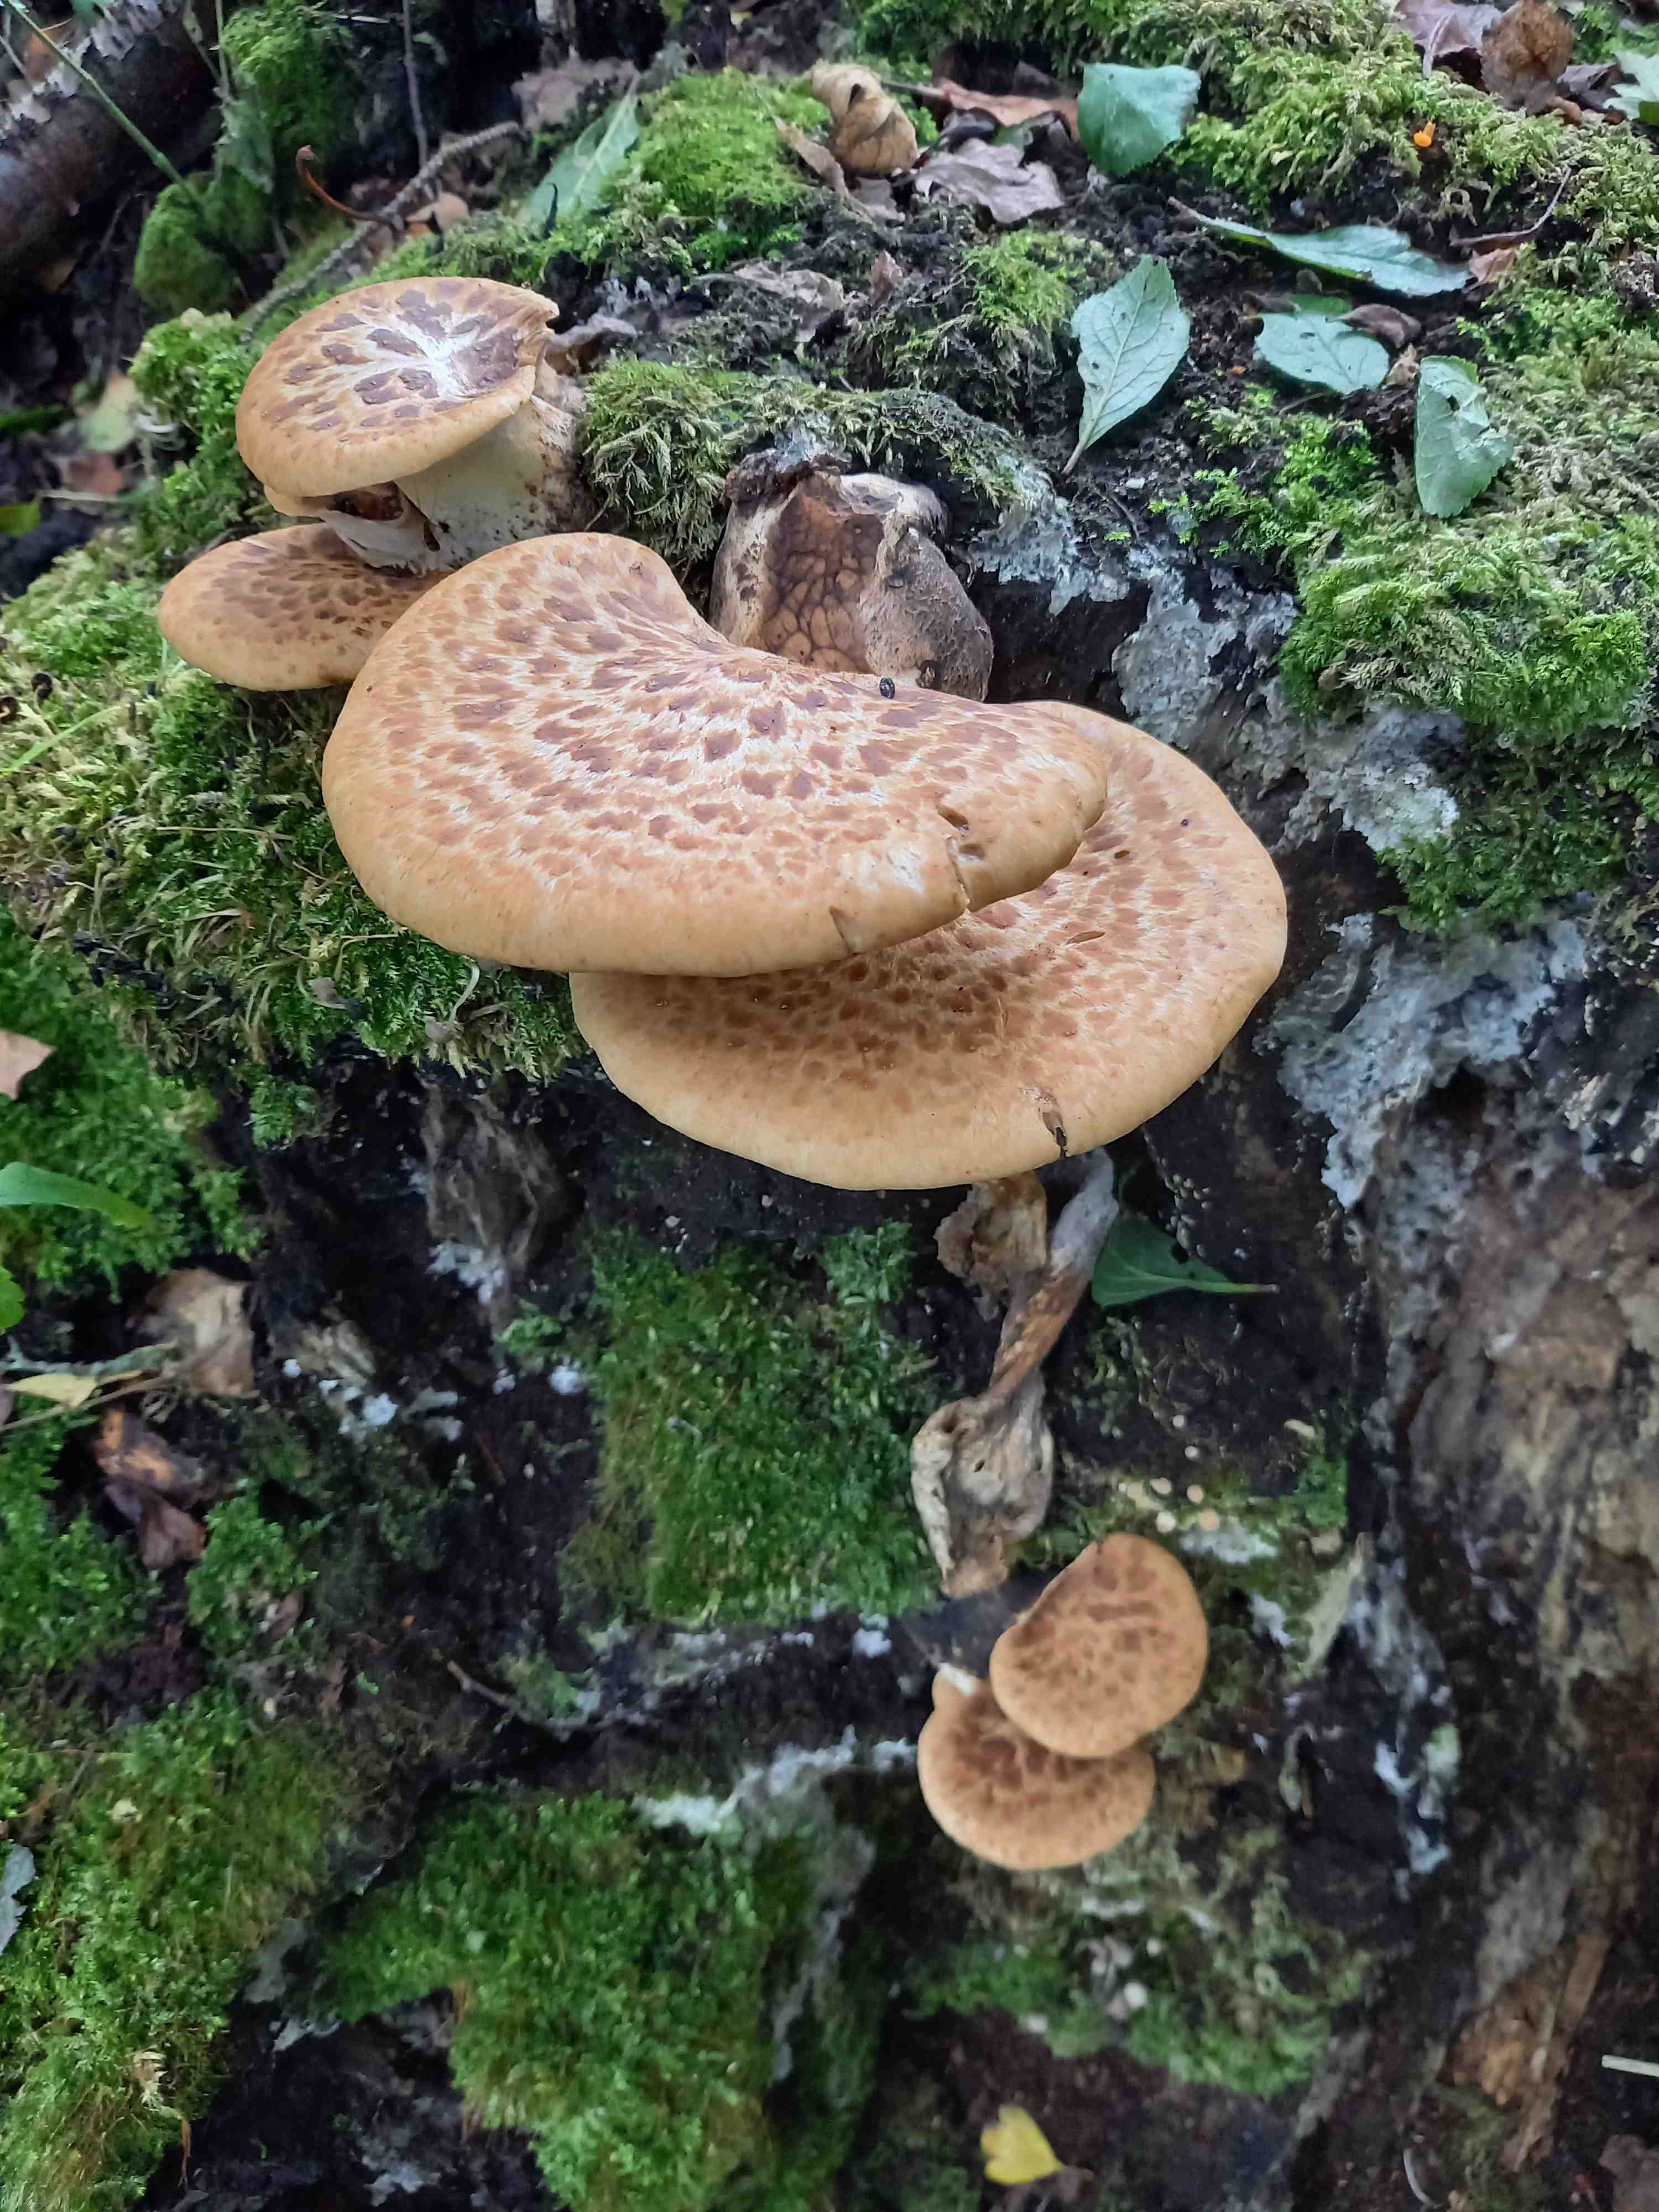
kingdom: Fungi
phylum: Basidiomycota
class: Agaricomycetes
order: Polyporales
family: Polyporaceae
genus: Cerioporus
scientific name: Cerioporus squamosus
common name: skællet stilkporesvamp
